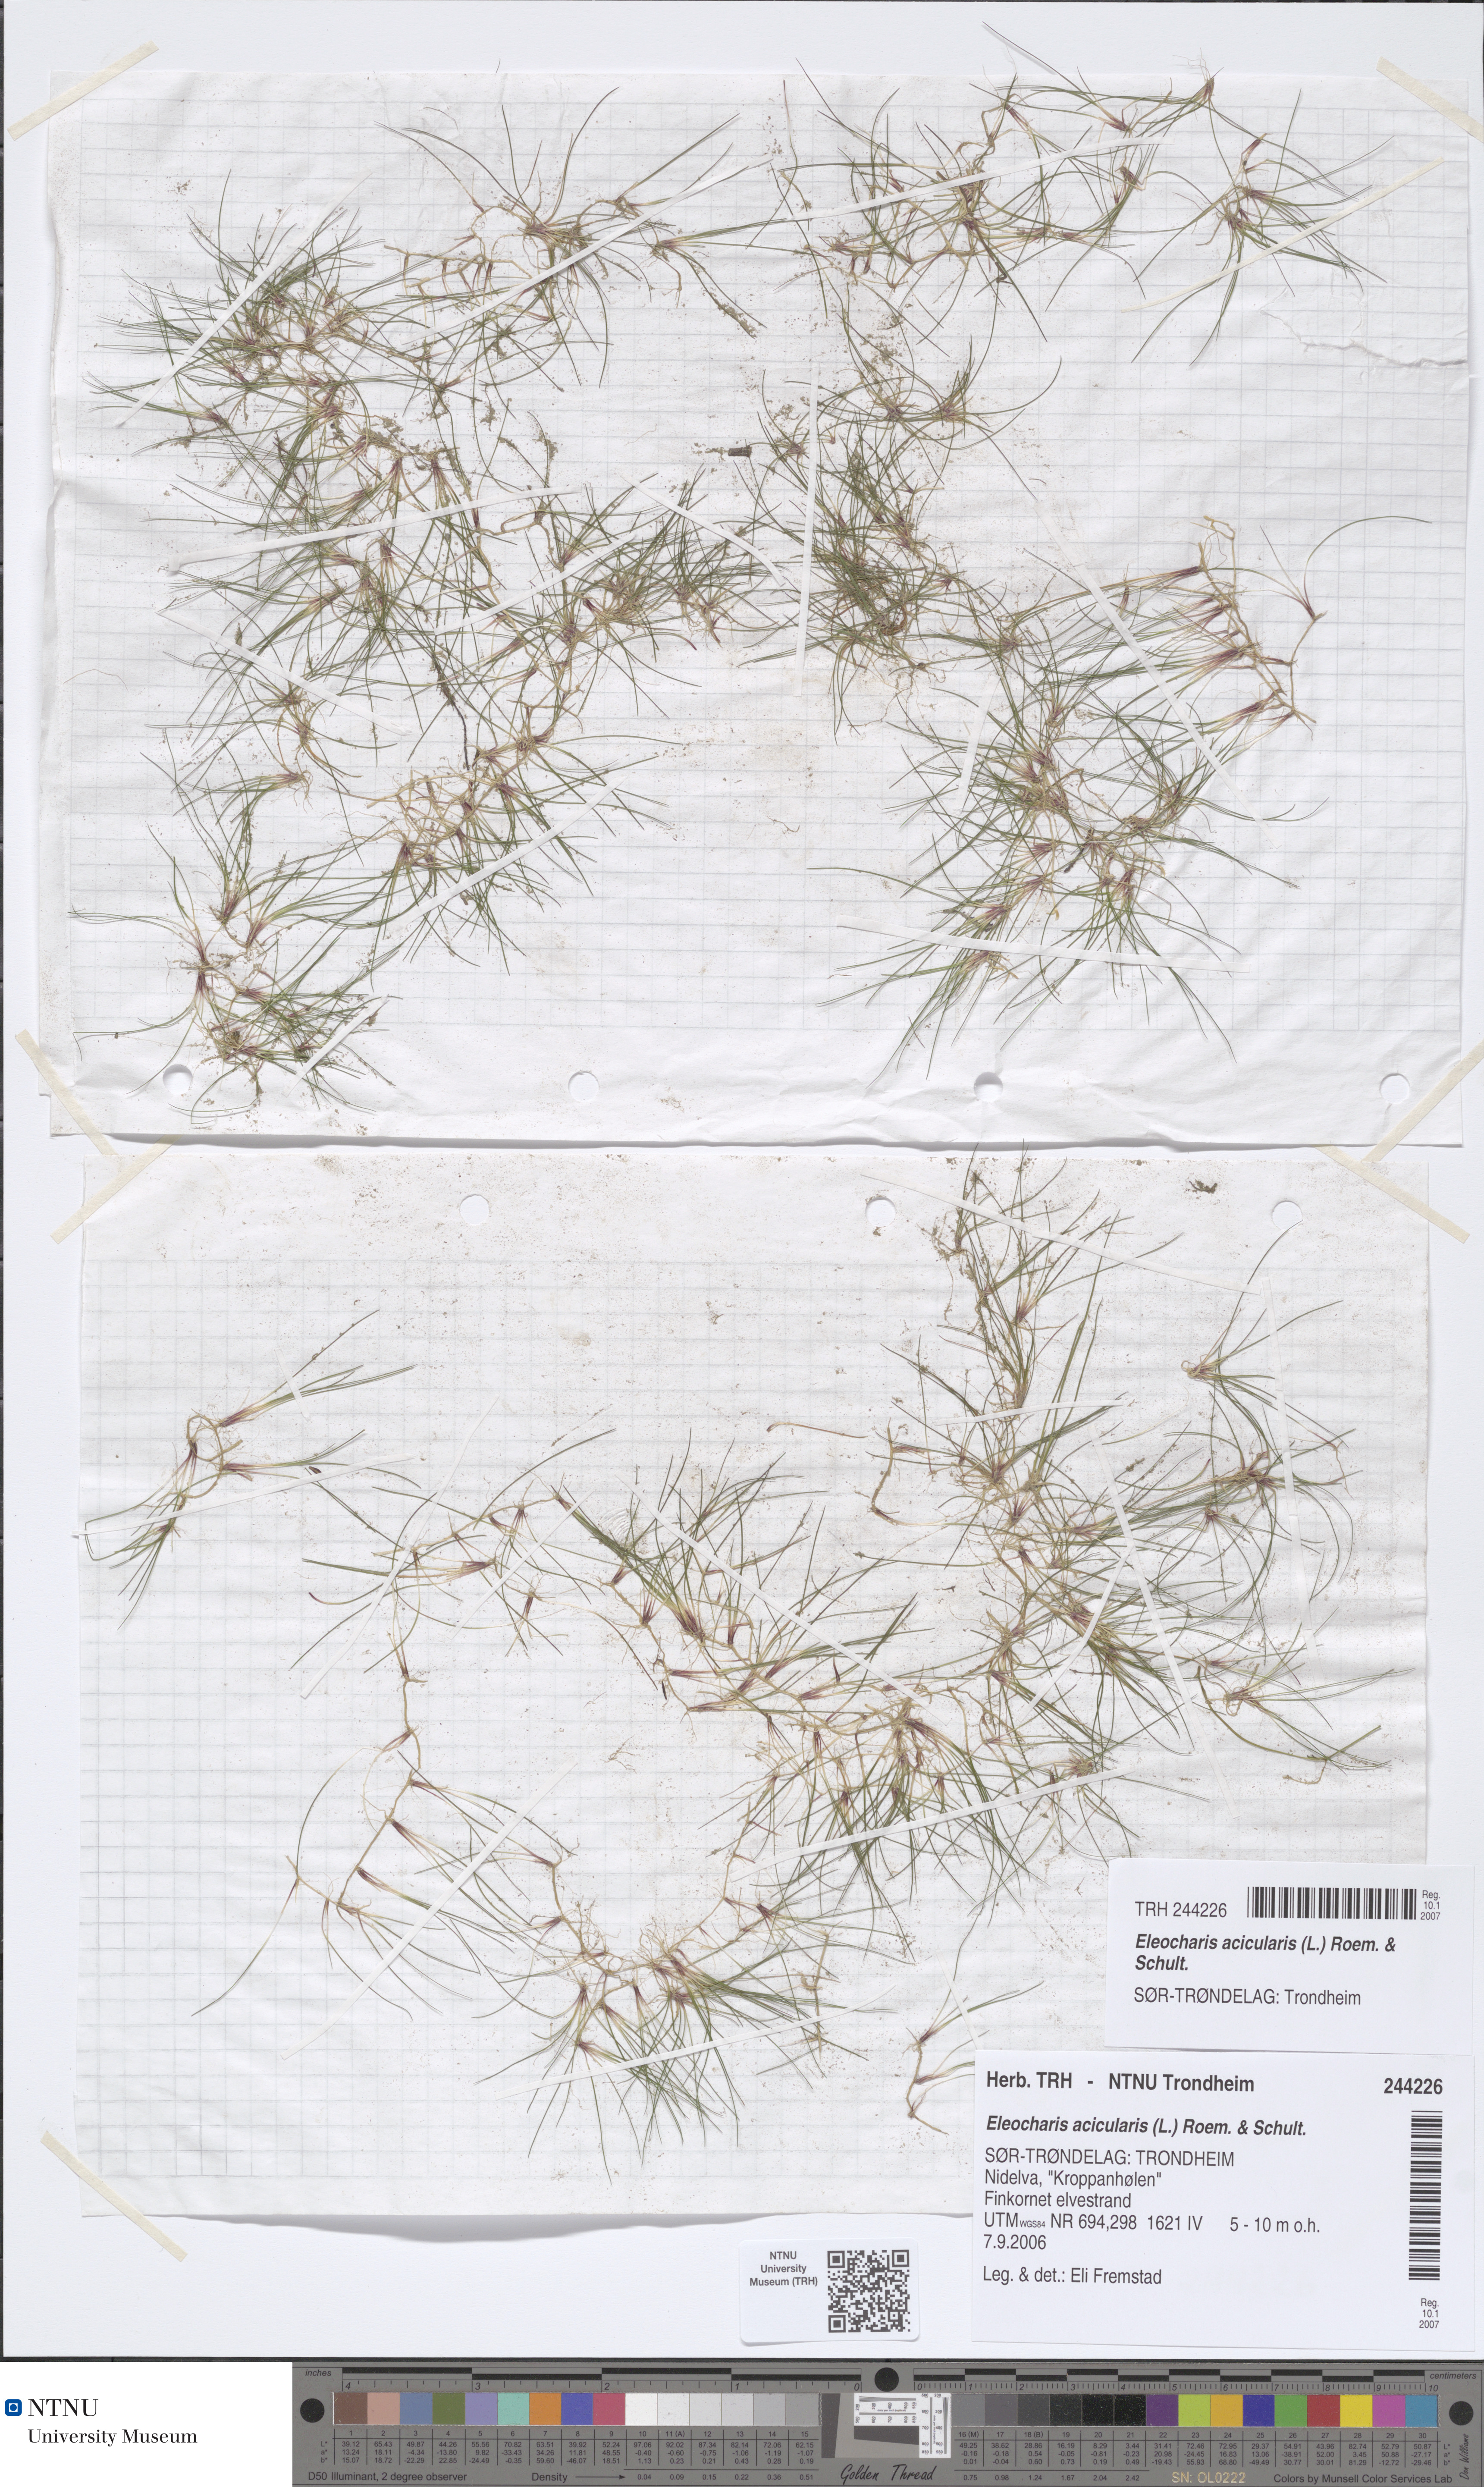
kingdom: Plantae
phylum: Tracheophyta
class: Liliopsida
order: Poales
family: Cyperaceae
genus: Eleocharis
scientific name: Eleocharis acicularis
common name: Needle spike-rush
